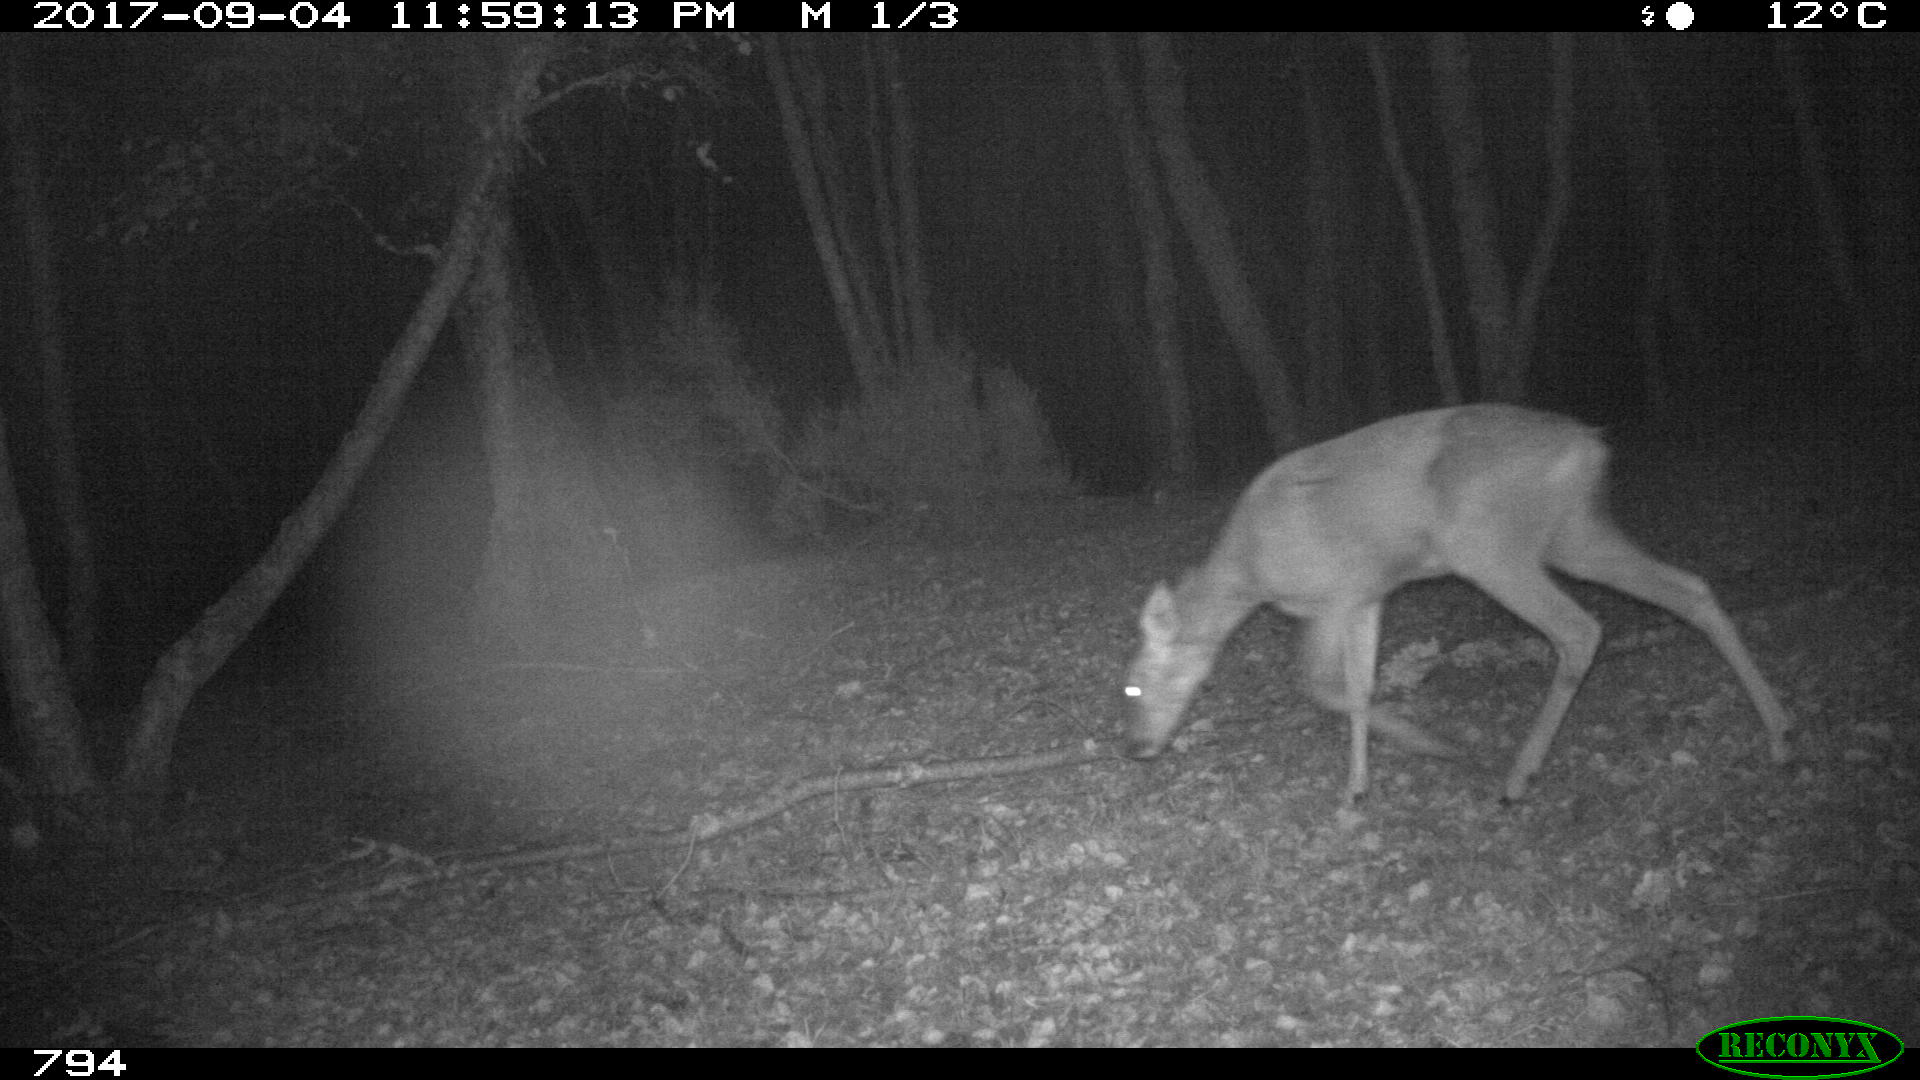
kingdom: Animalia
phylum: Chordata
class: Mammalia
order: Artiodactyla
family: Cervidae
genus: Capreolus
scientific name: Capreolus capreolus
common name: Western roe deer
